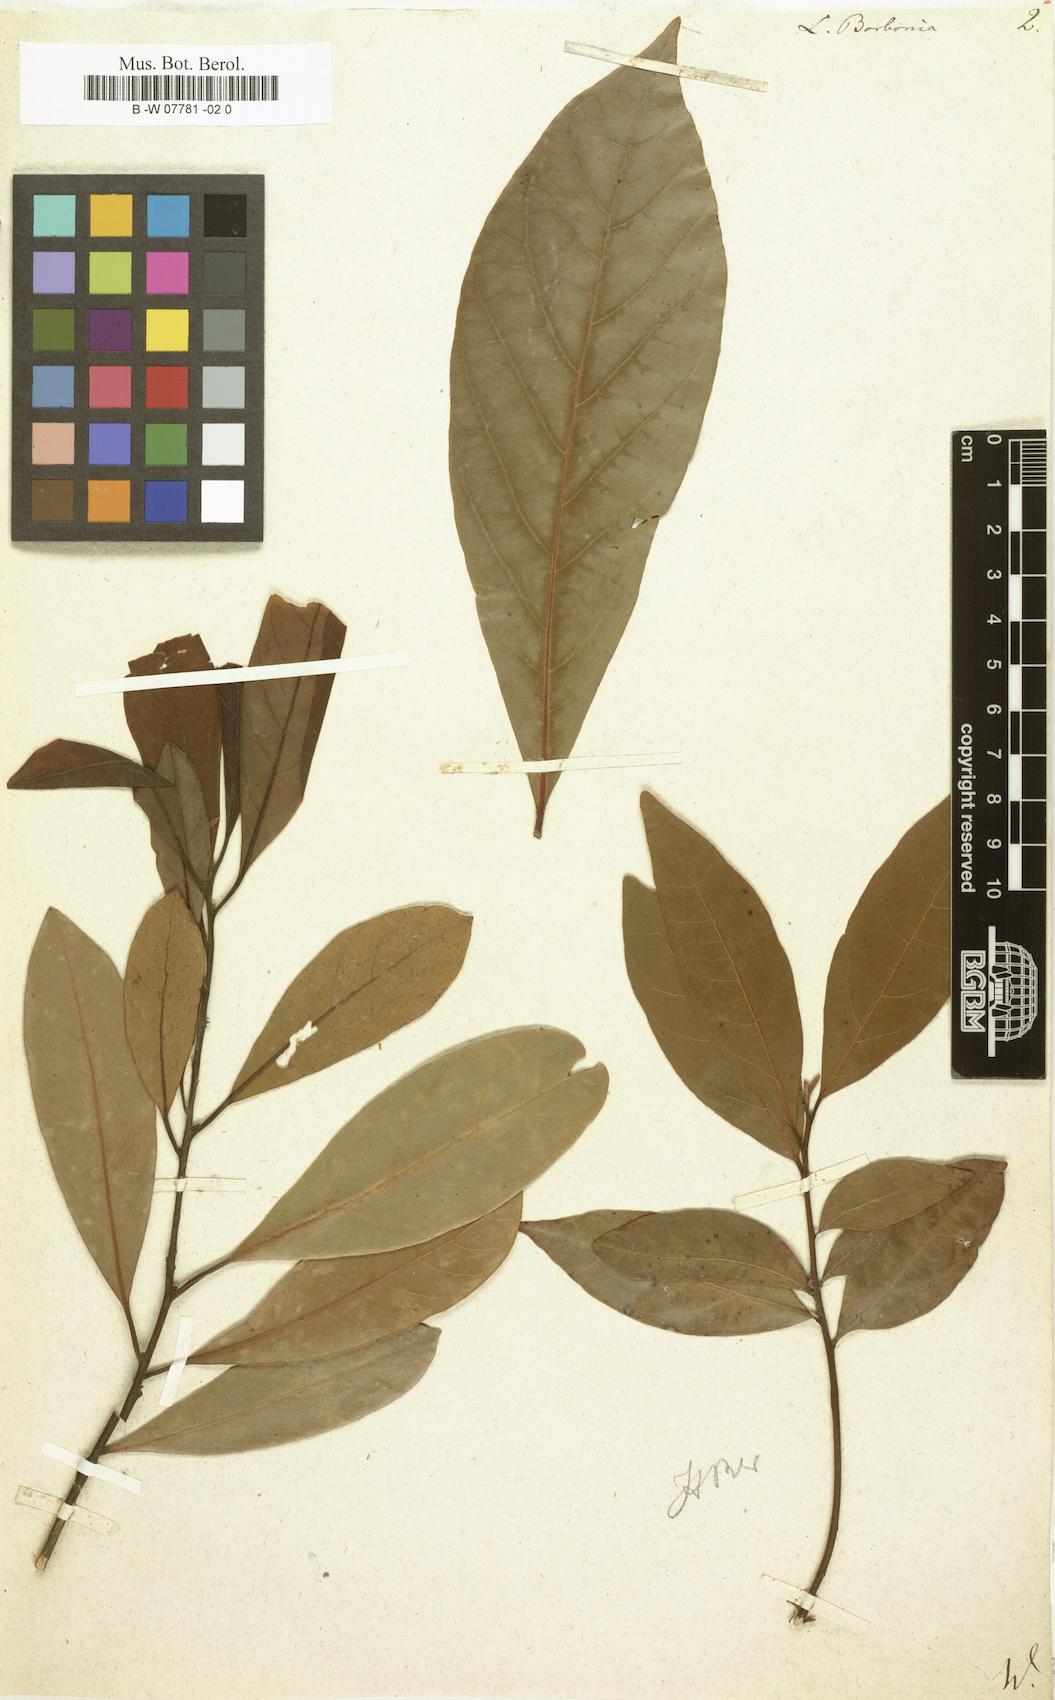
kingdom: Plantae
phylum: Tracheophyta
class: Magnoliopsida
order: Laurales
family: Lauraceae
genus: Persea
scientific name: Persea borbonia
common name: Redbay
